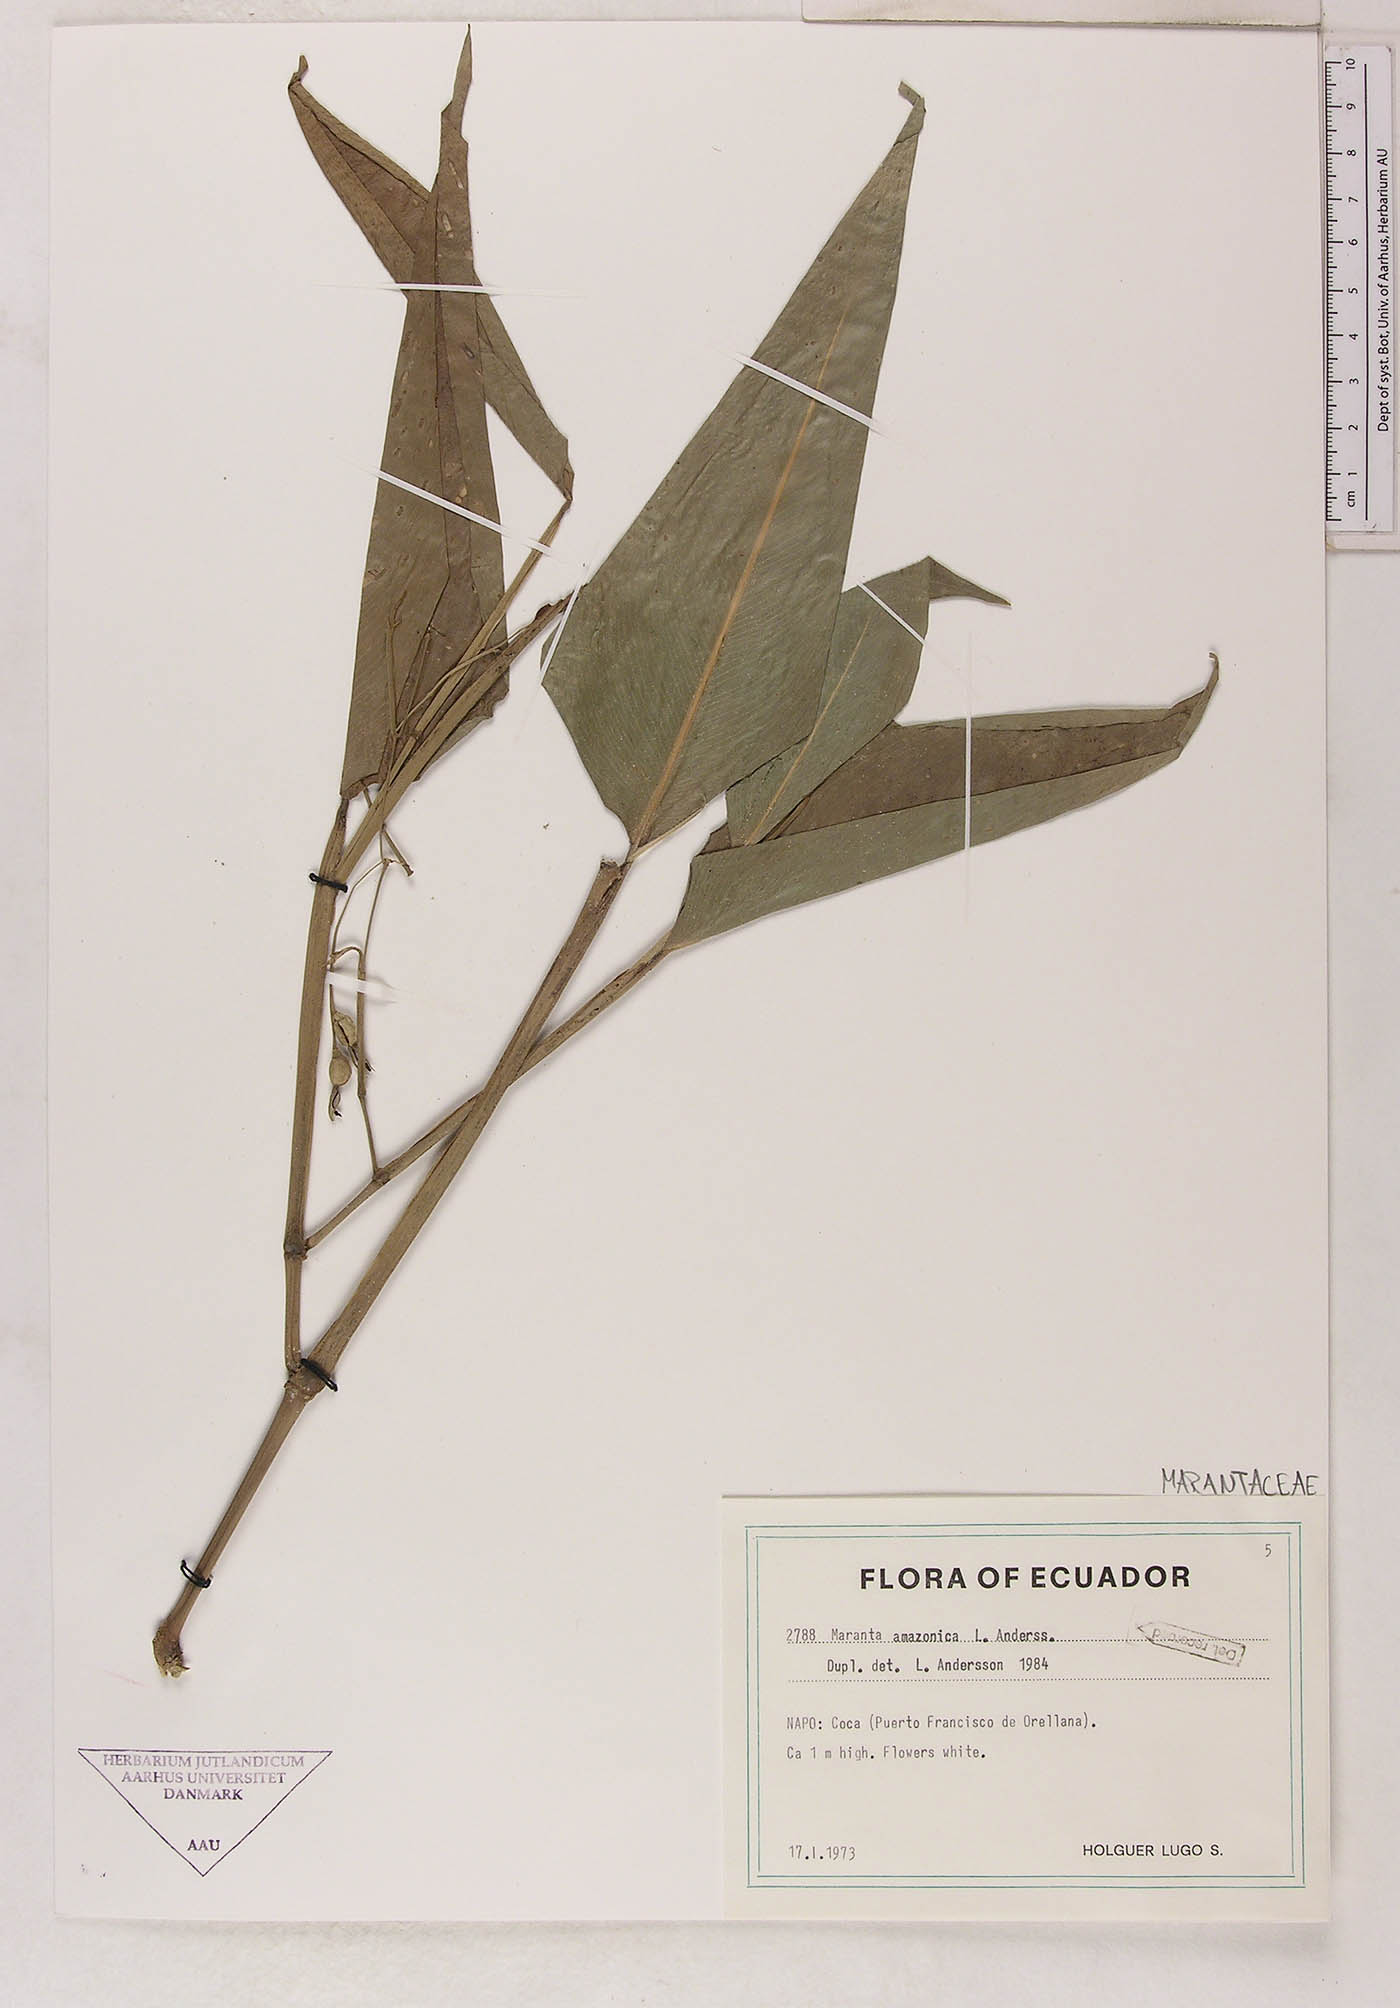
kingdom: Plantae
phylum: Tracheophyta
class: Liliopsida
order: Zingiberales
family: Marantaceae
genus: Maranta
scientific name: Maranta amazonica
